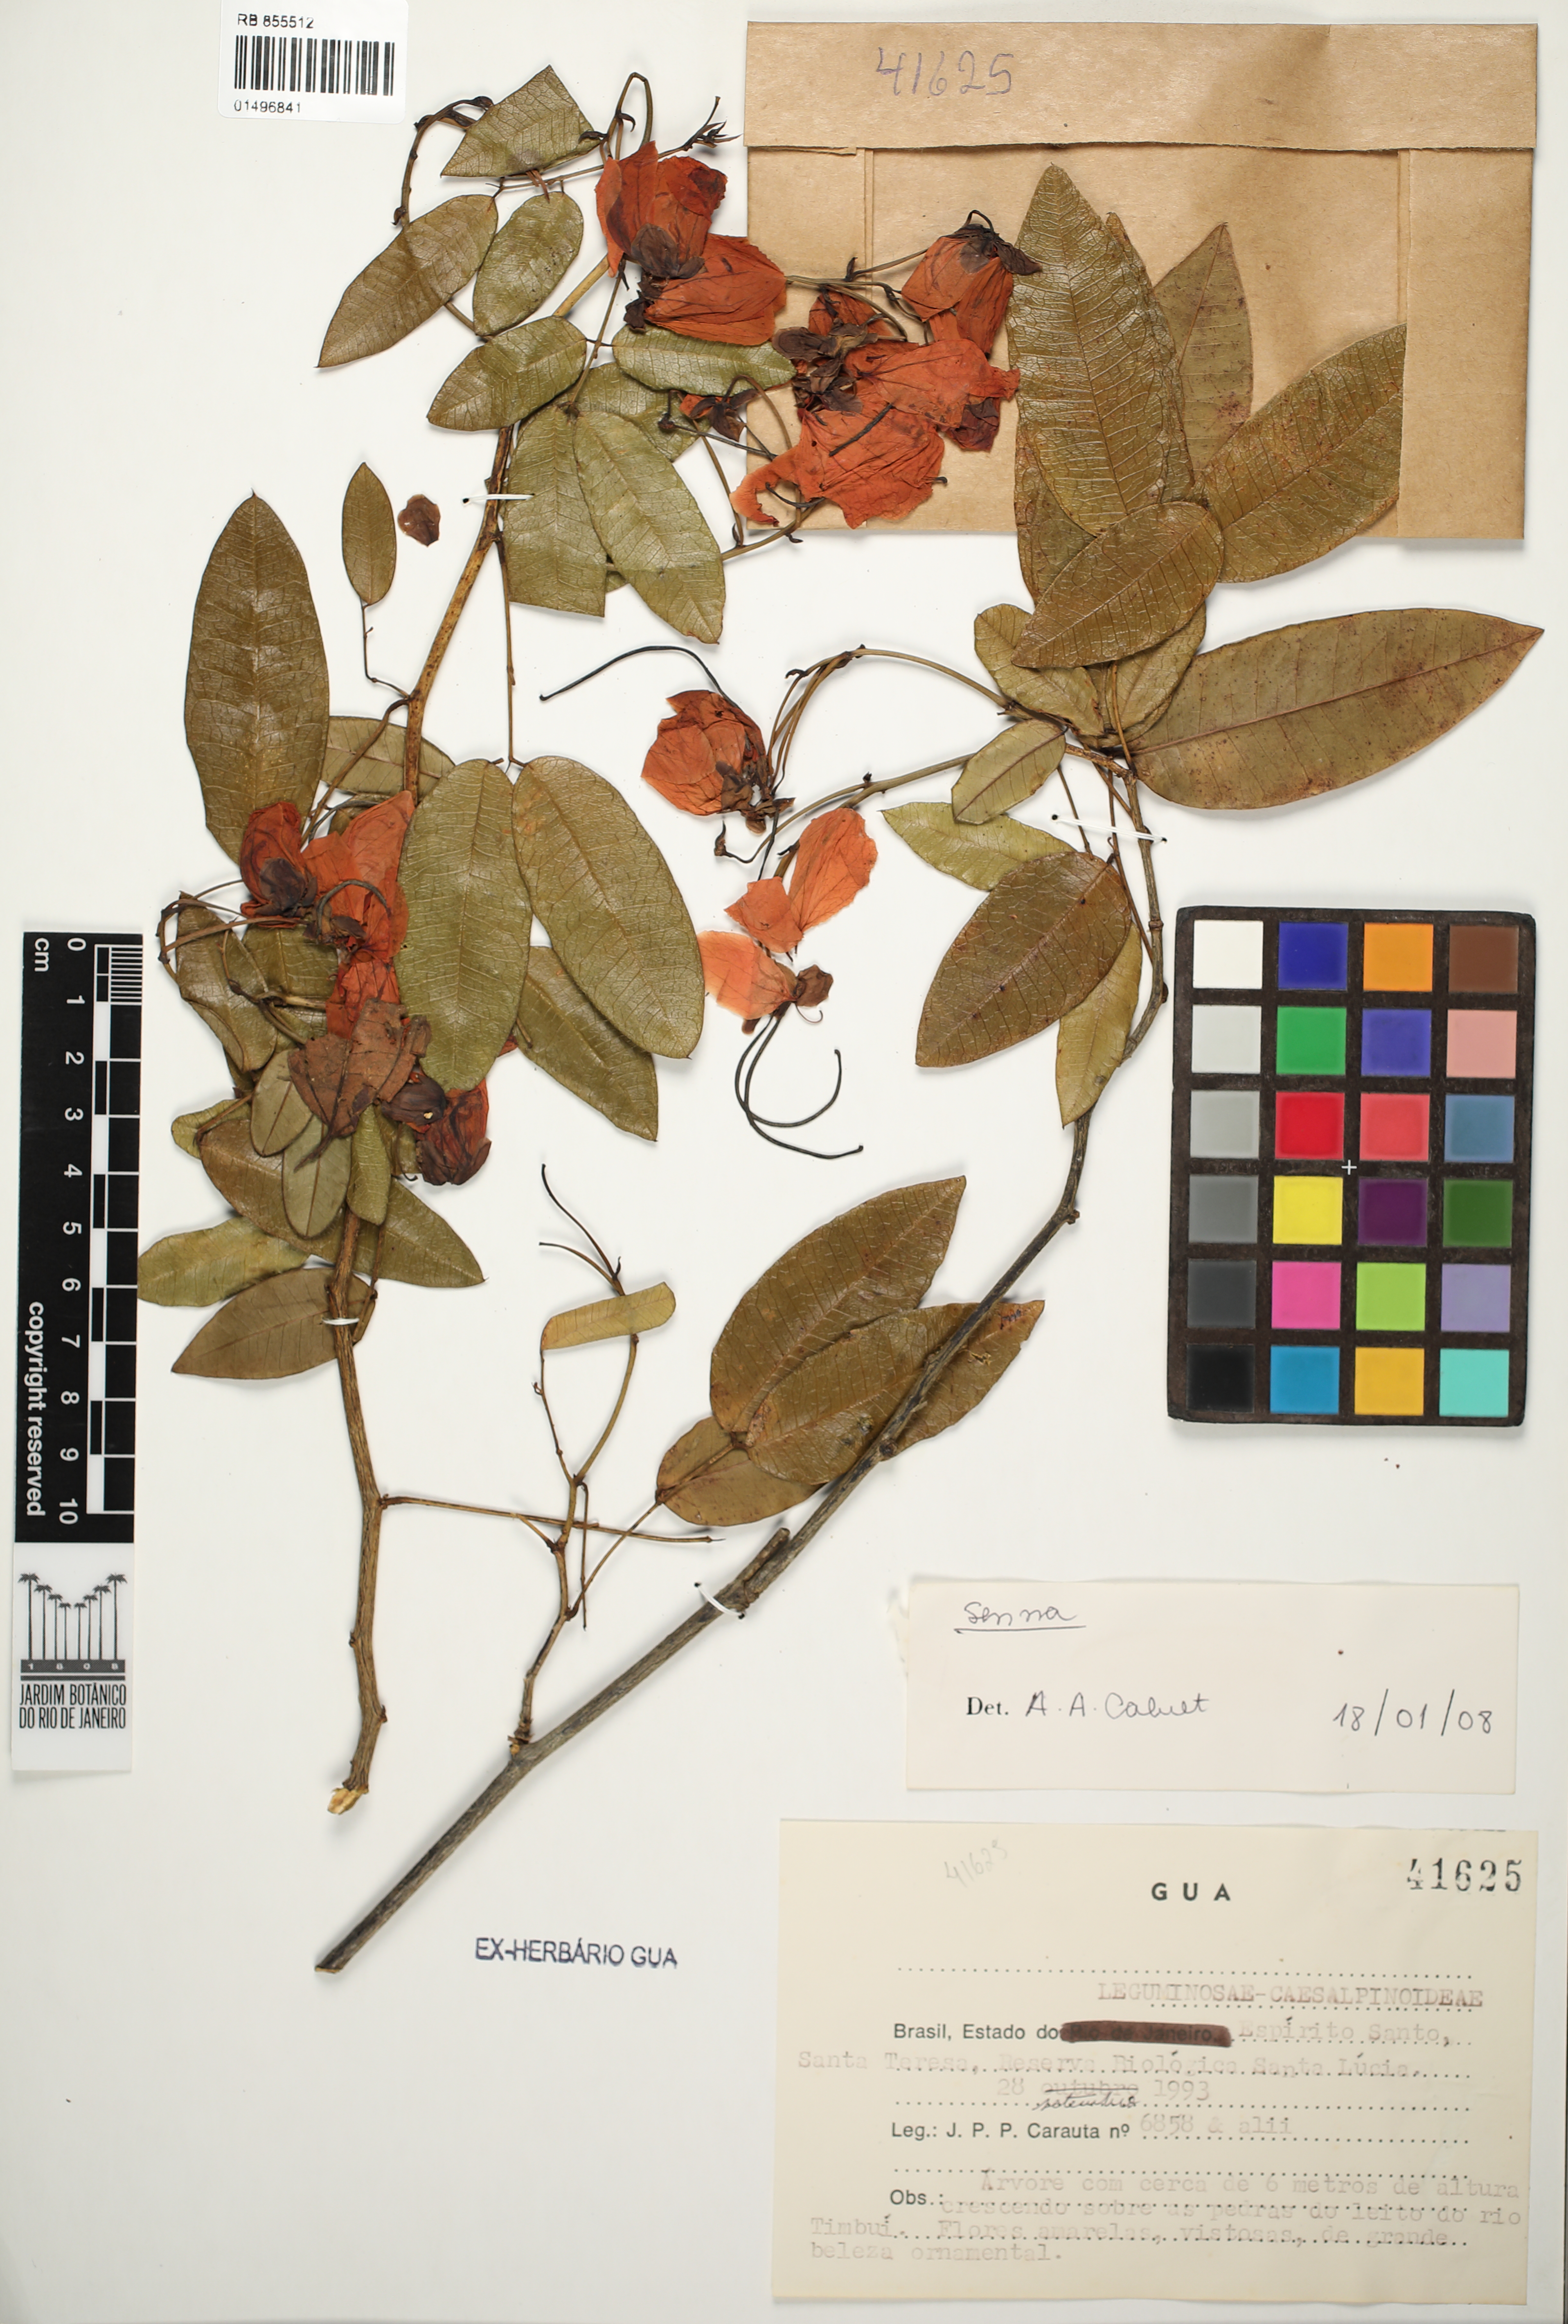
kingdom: Plantae
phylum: Tracheophyta
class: Magnoliopsida
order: Fabales
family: Fabaceae
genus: Senna
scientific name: Senna
